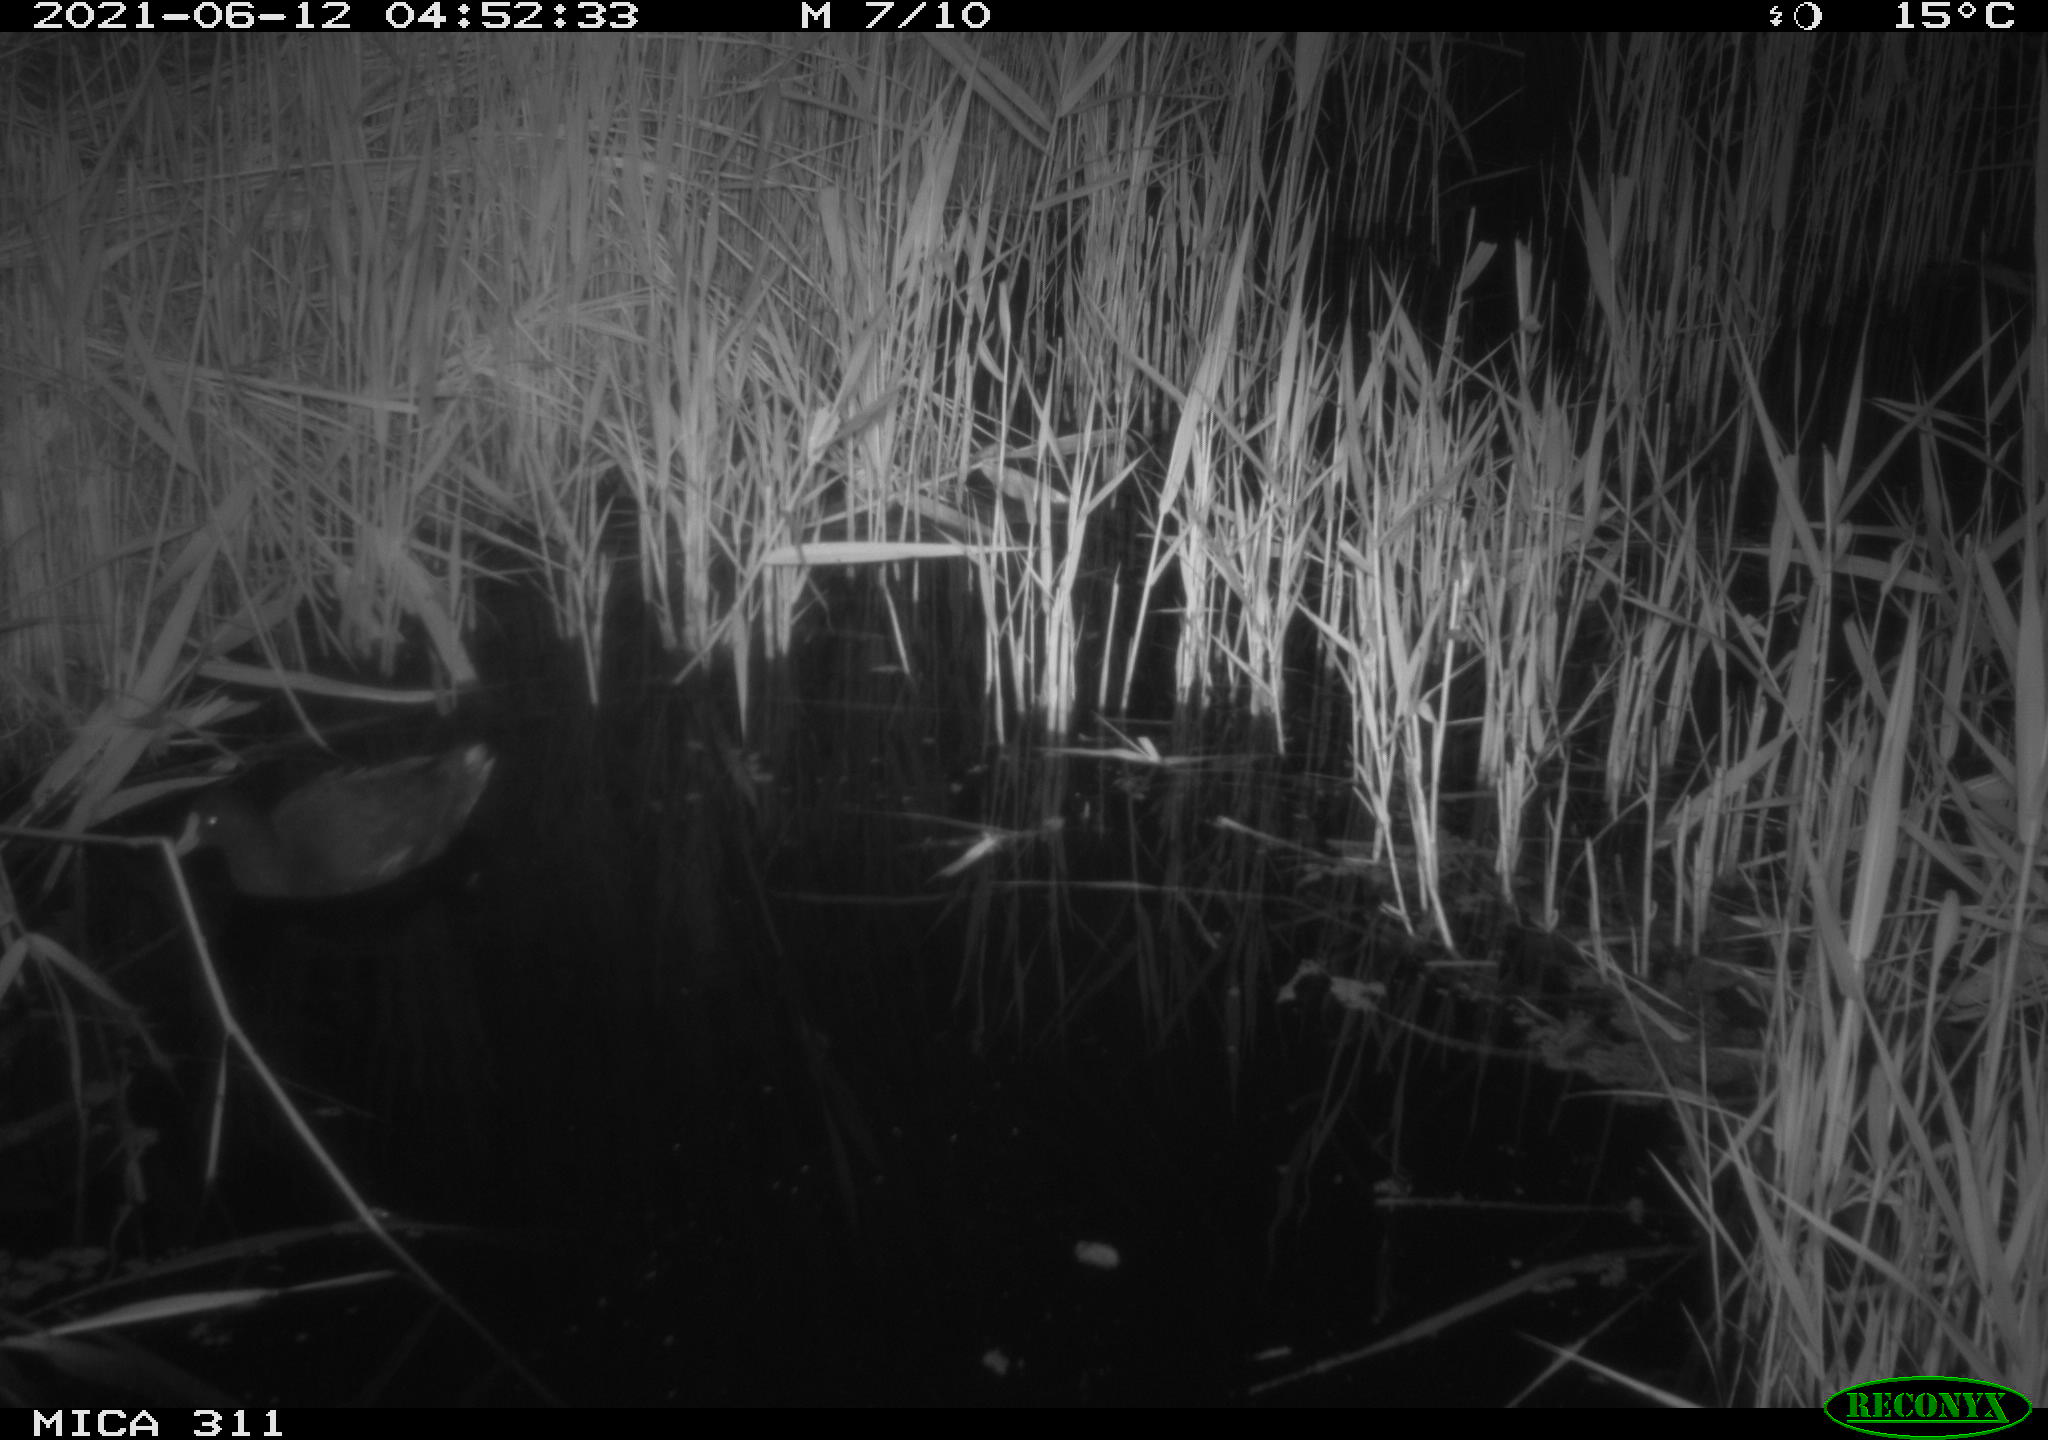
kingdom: Animalia
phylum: Chordata
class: Aves
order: Gruiformes
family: Rallidae
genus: Gallinula
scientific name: Gallinula chloropus
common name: Common moorhen
